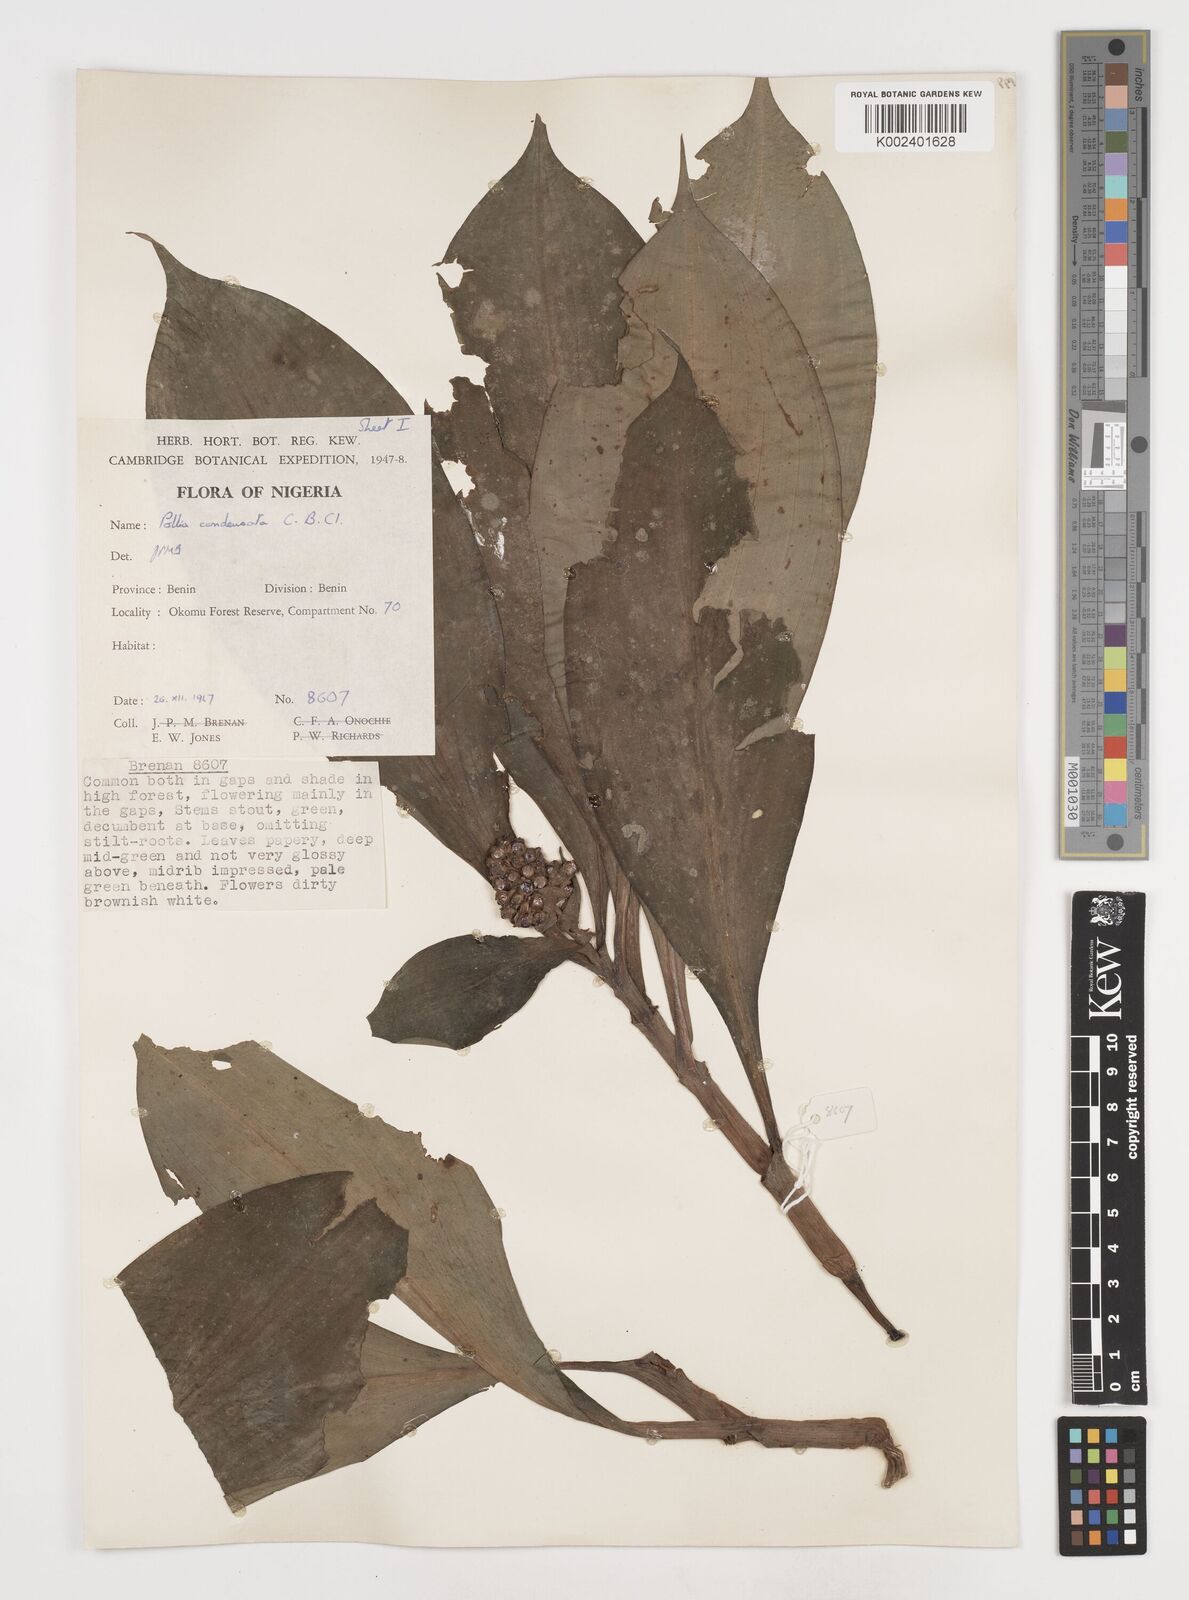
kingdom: Plantae
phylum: Tracheophyta
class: Liliopsida
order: Commelinales
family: Commelinaceae
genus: Pollia
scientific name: Pollia condensata
